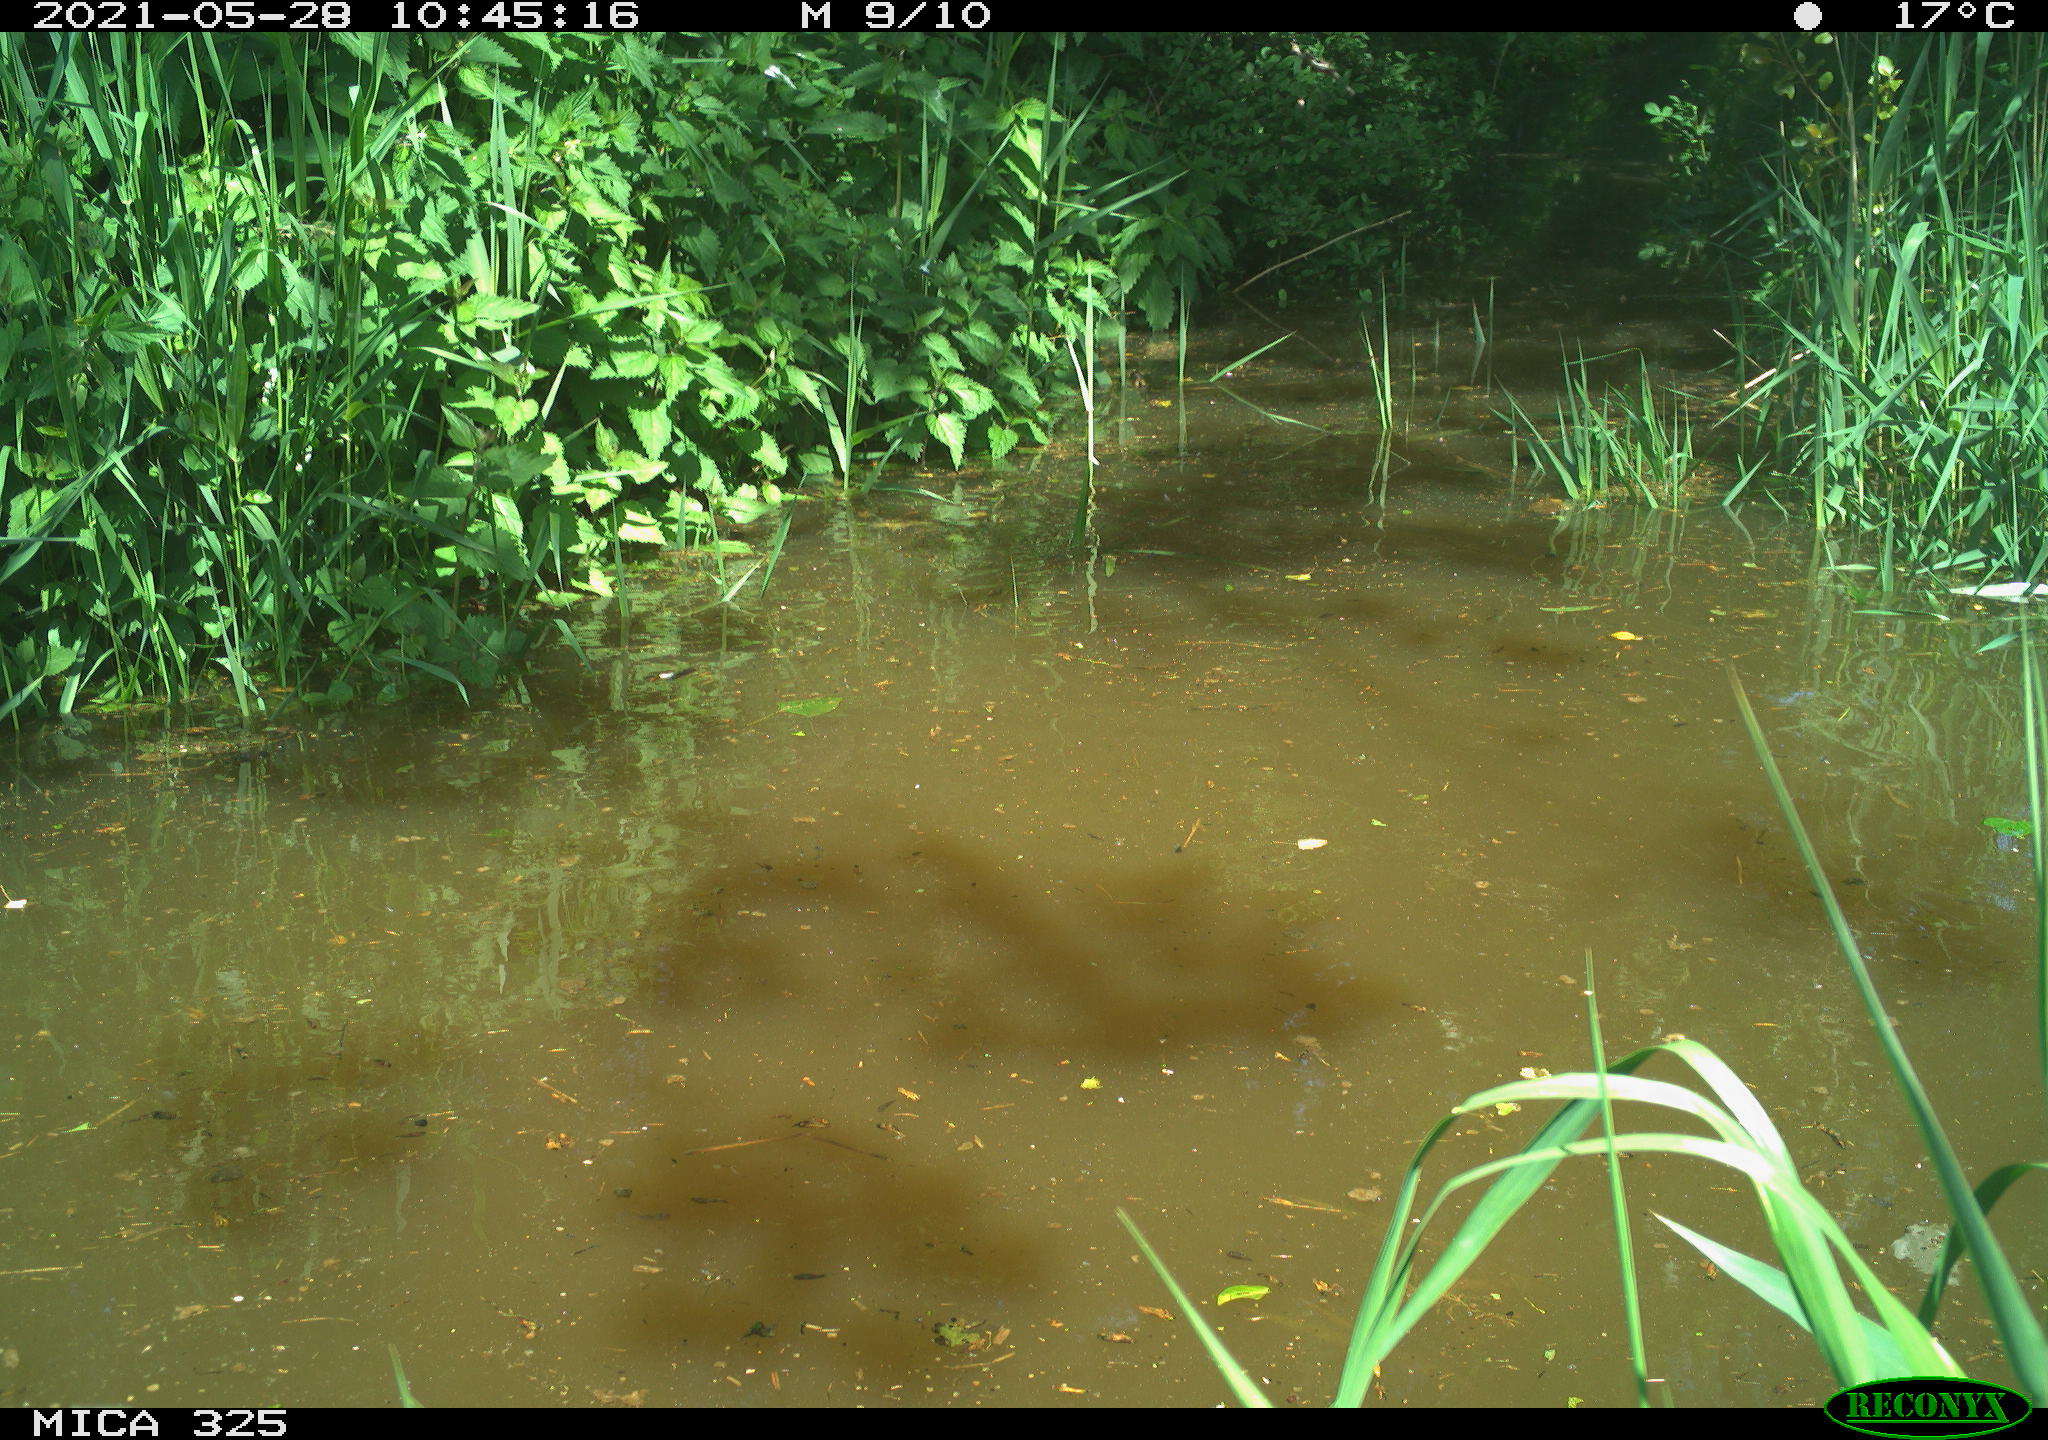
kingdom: Animalia
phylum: Chordata
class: Mammalia
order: Rodentia
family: Cricetidae
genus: Ondatra
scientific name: Ondatra zibethicus
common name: Muskrat
